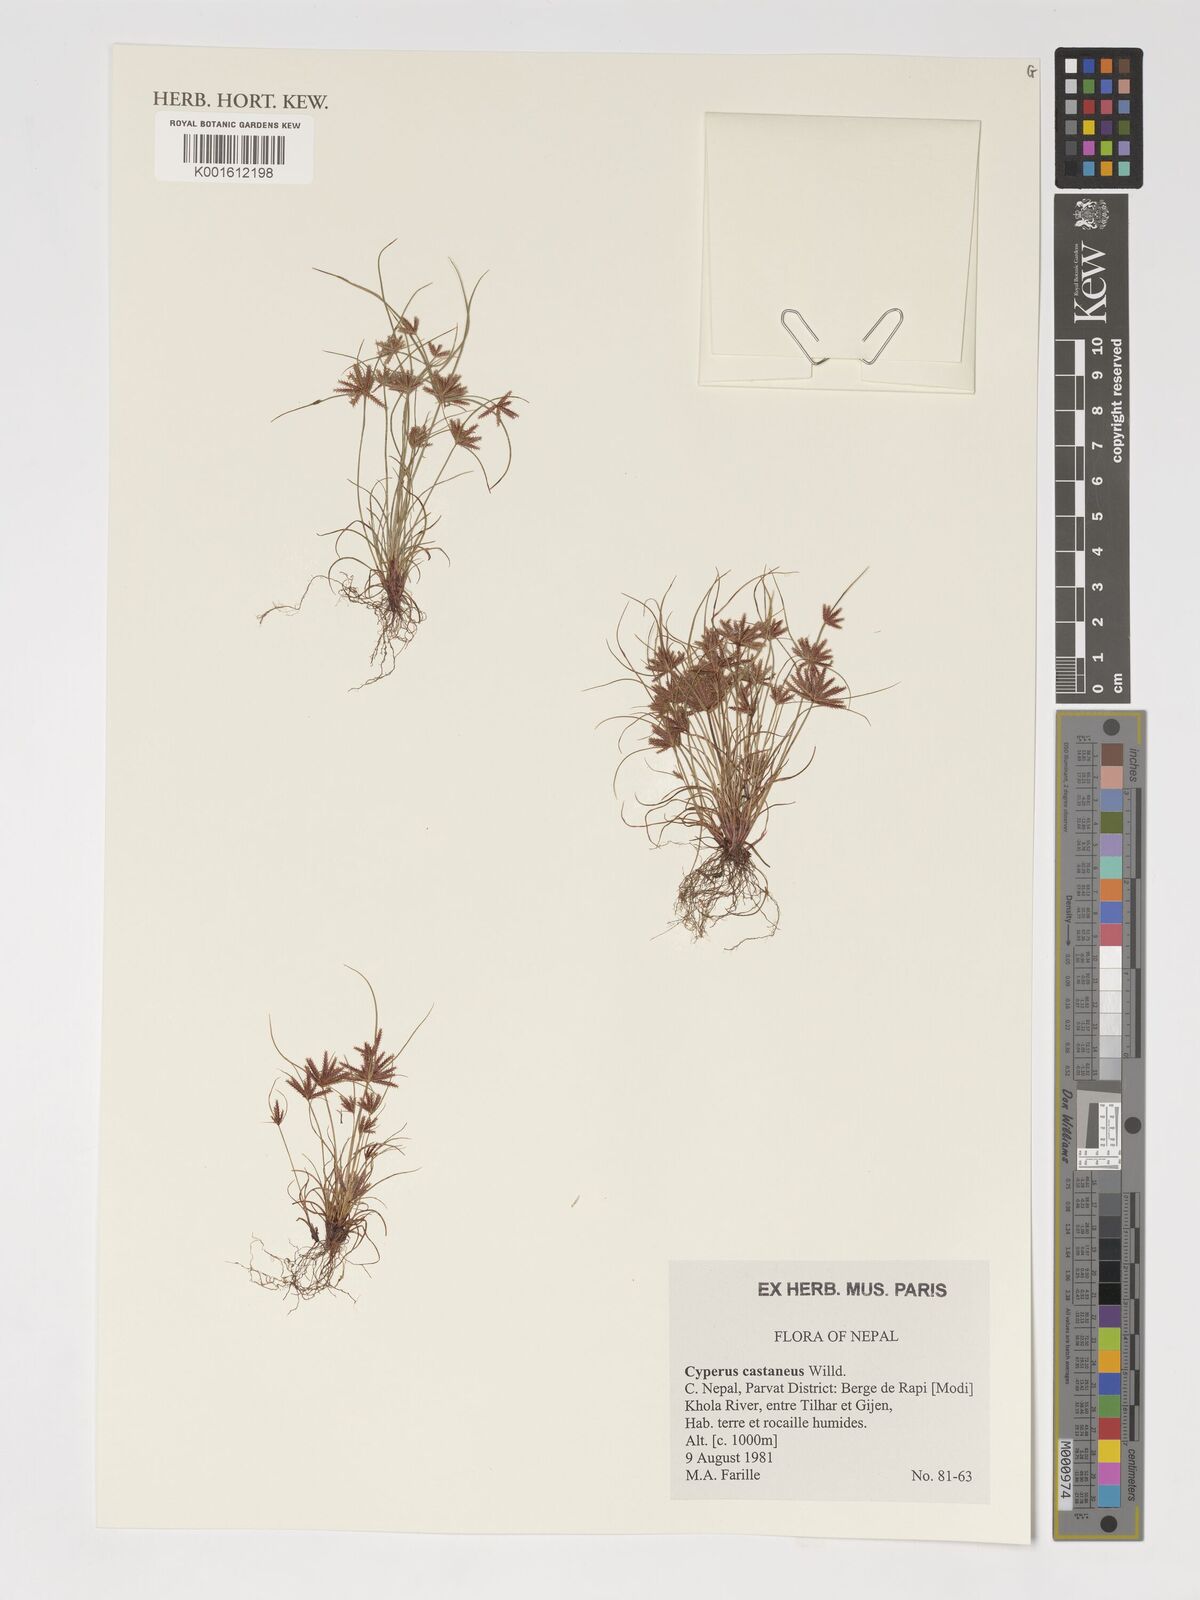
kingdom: Plantae
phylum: Tracheophyta
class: Liliopsida
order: Poales
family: Cyperaceae
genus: Cyperus
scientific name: Cyperus castaneus
